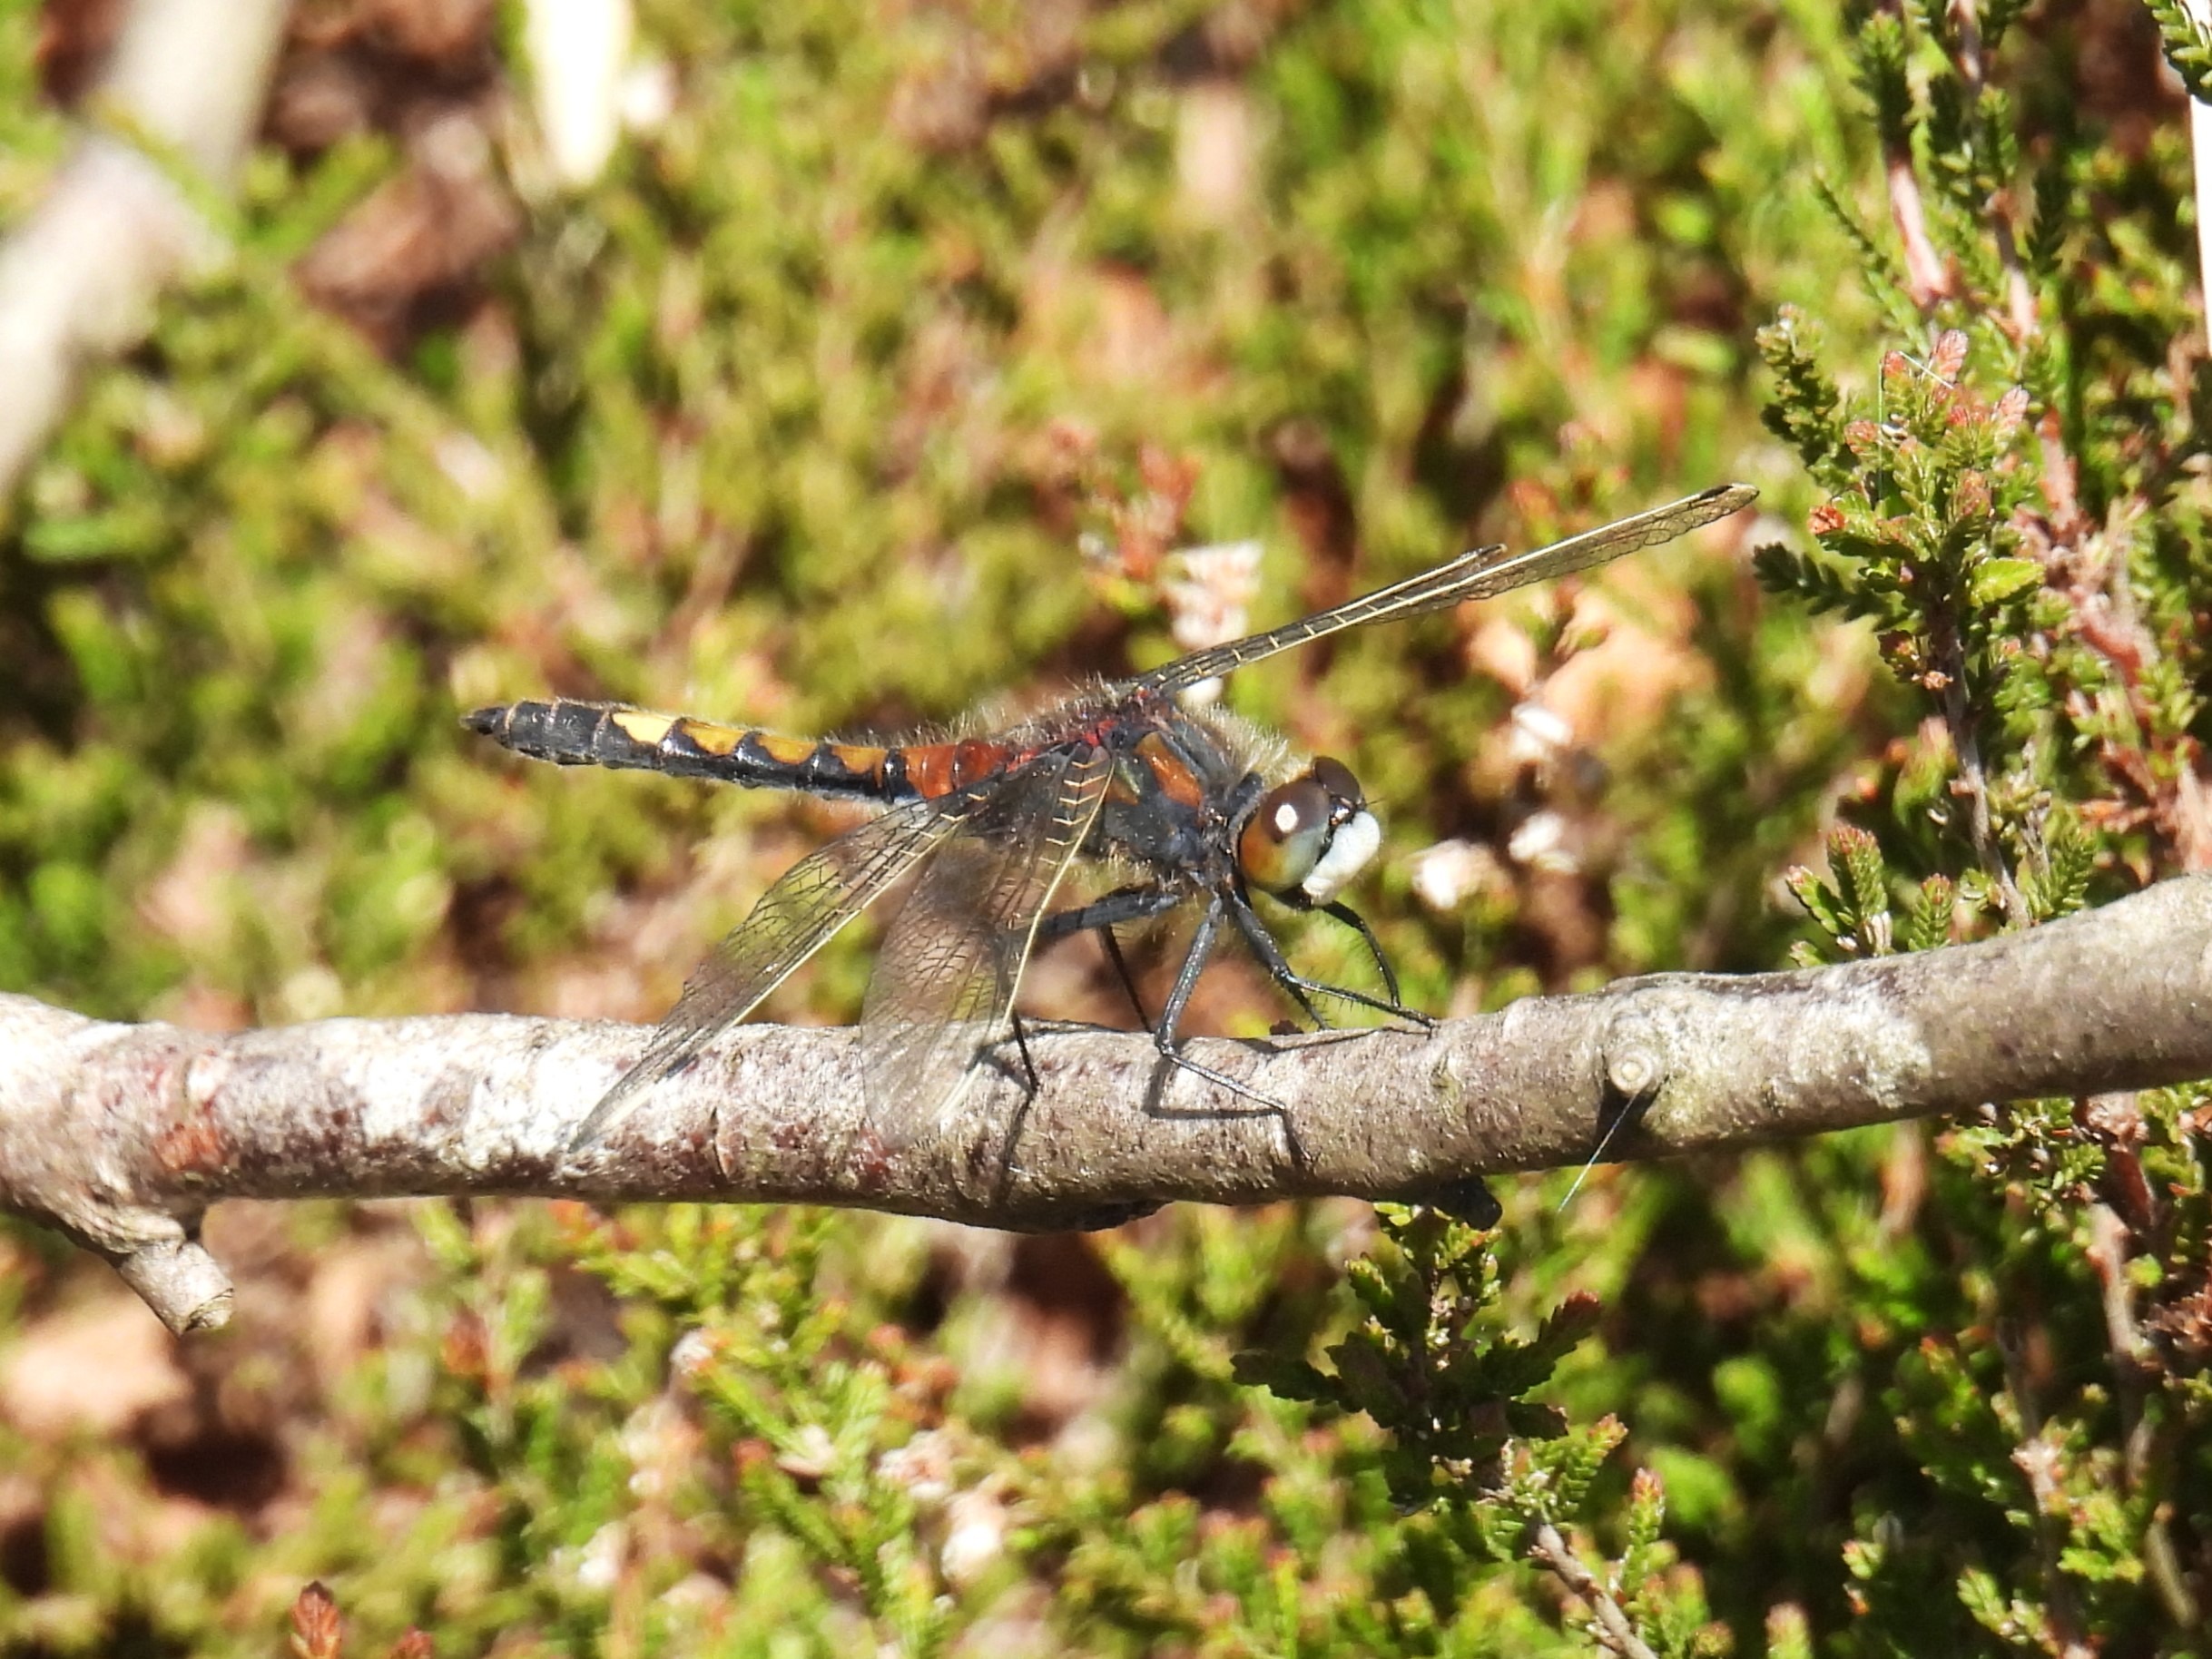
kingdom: Animalia
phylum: Arthropoda
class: Insecta
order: Odonata
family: Libellulidae
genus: Leucorrhinia
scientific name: Leucorrhinia pectoralis
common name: Stor kærguldsmed
